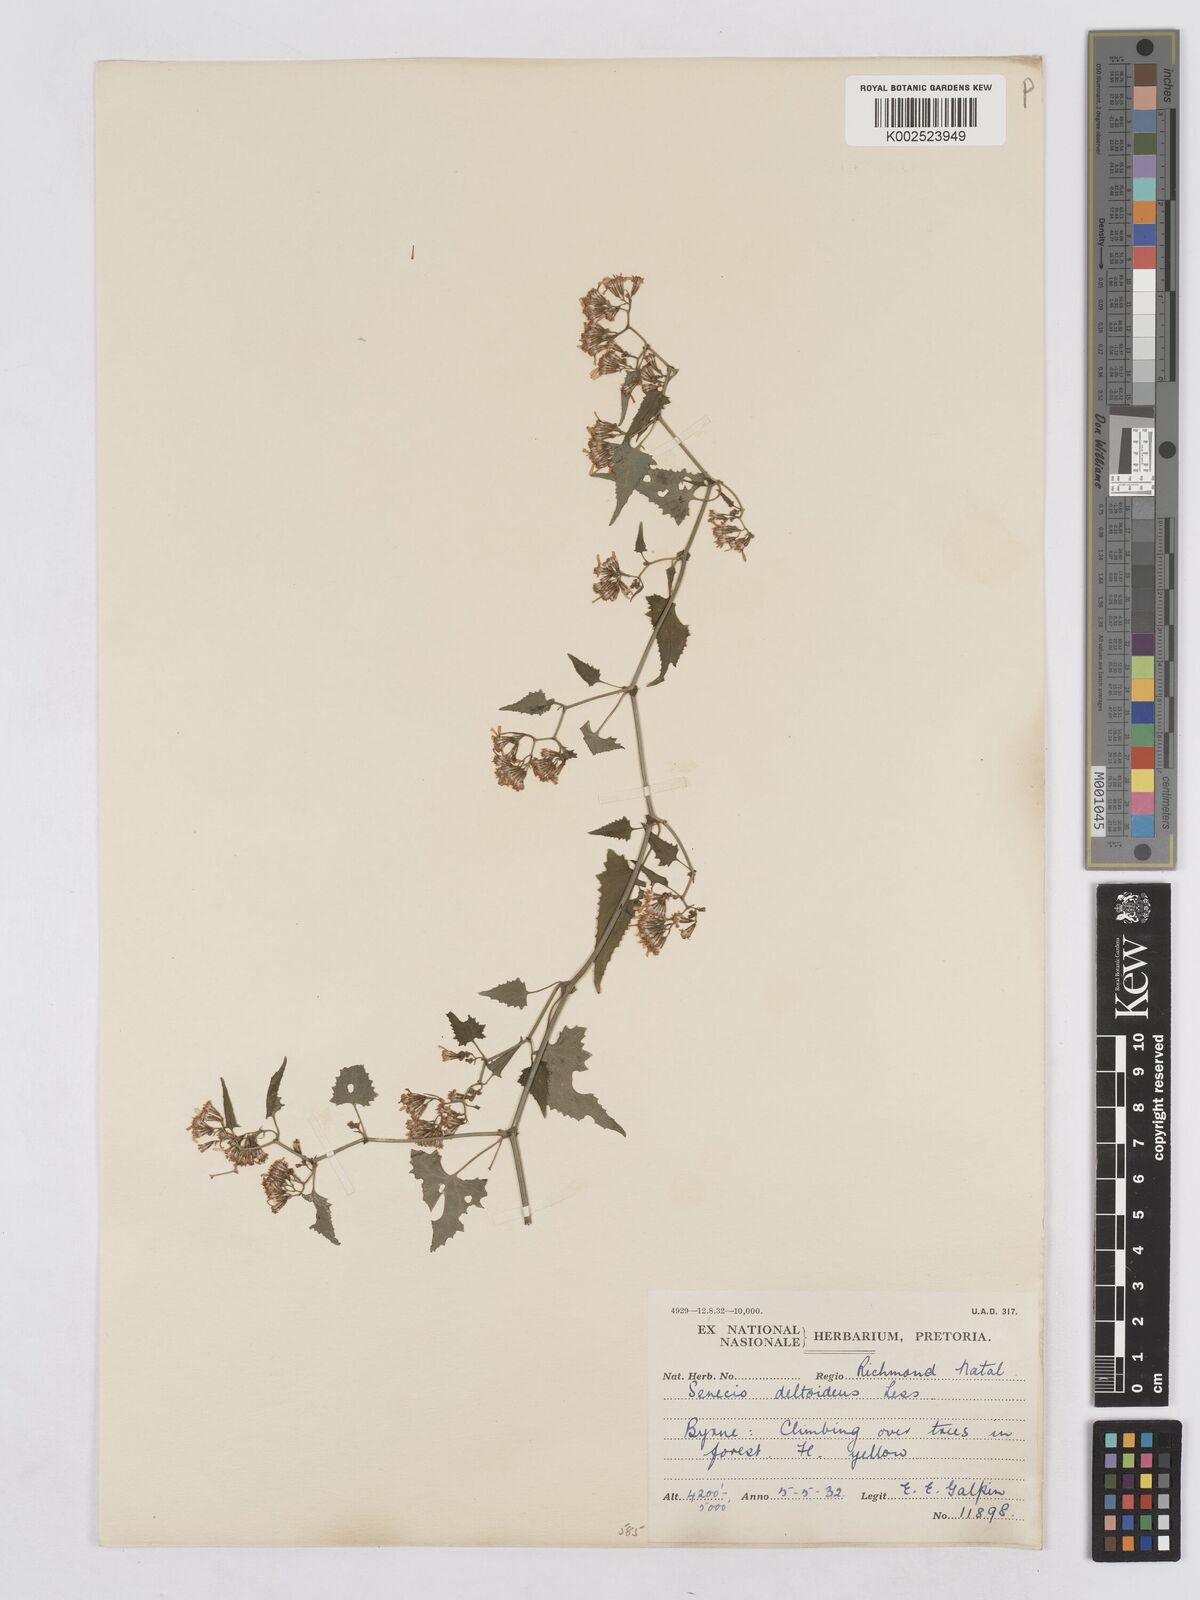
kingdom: Plantae
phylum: Tracheophyta
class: Magnoliopsida
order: Asterales
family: Asteraceae
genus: Senecio
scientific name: Senecio deltoideus
